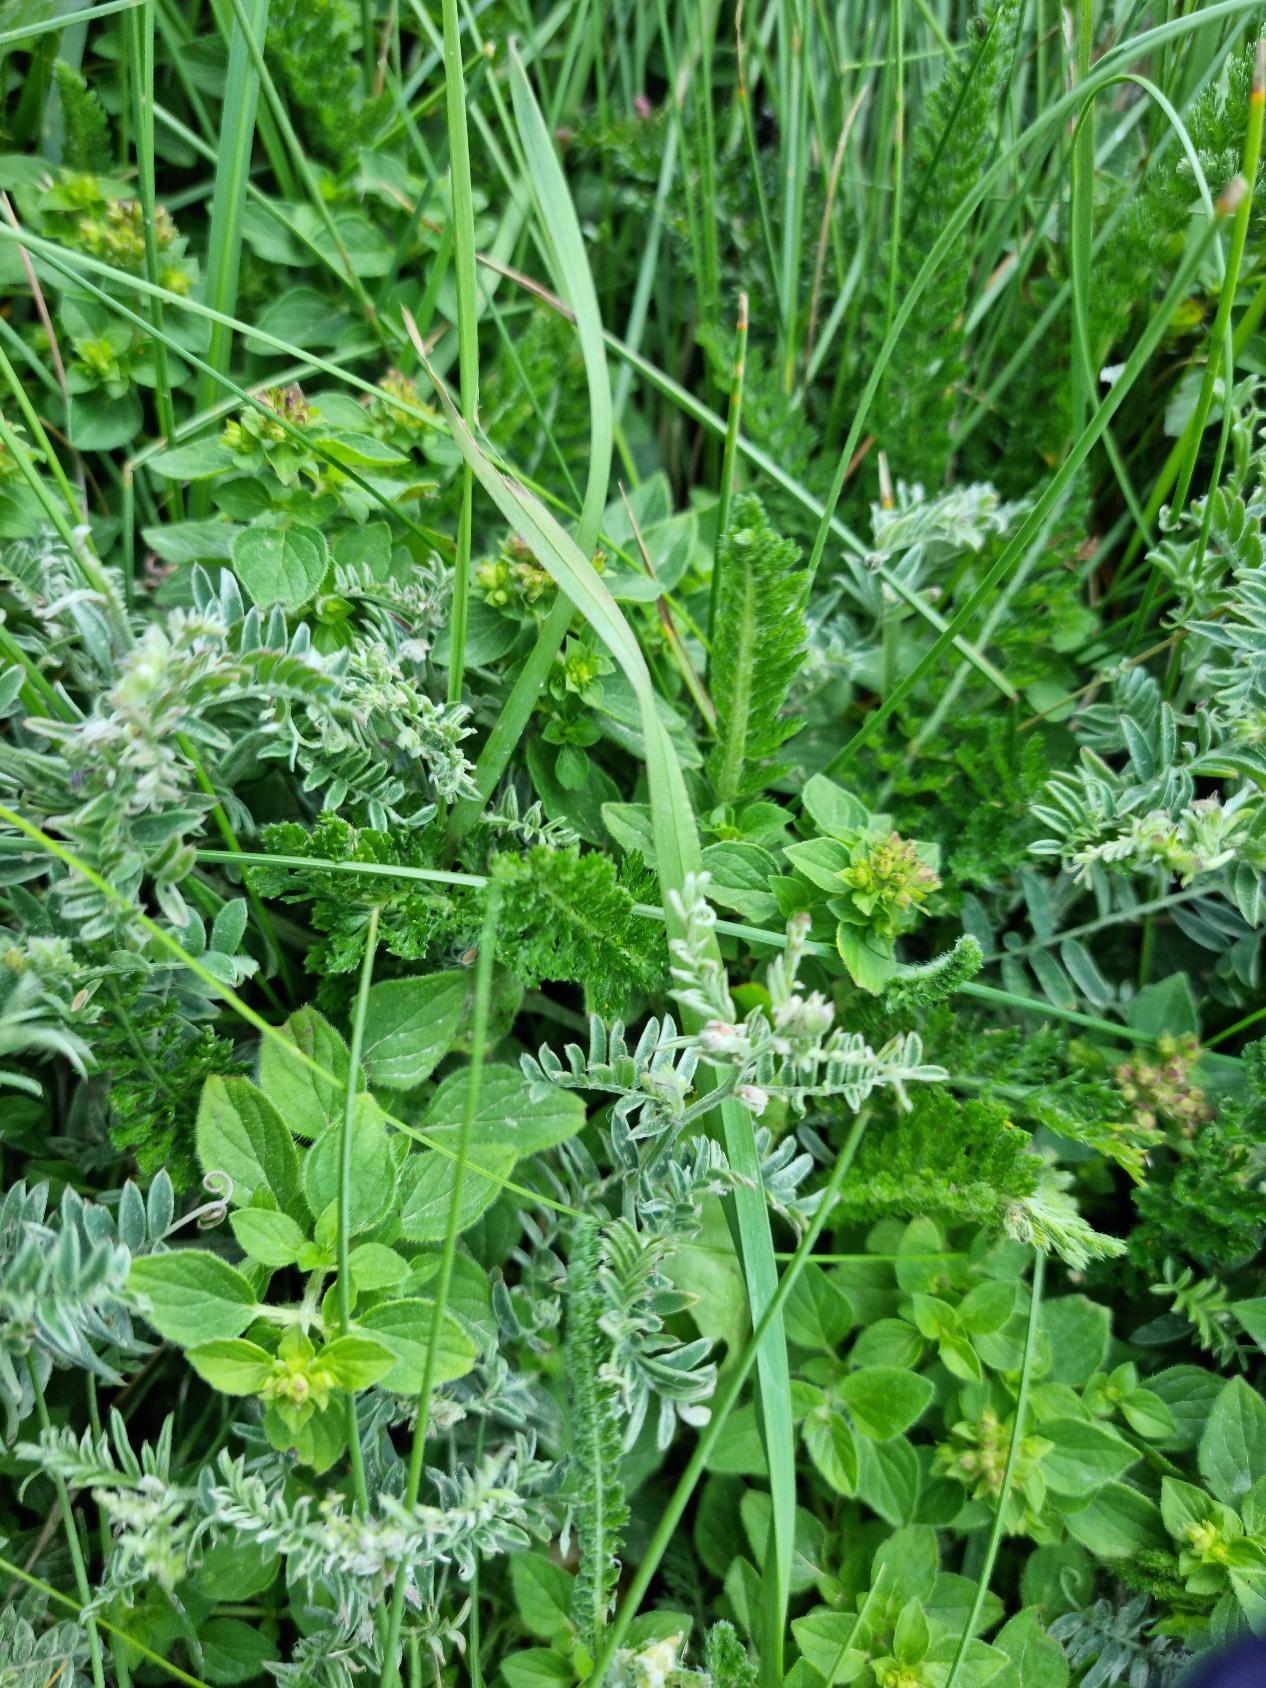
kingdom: Plantae
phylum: Tracheophyta
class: Magnoliopsida
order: Lamiales
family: Lamiaceae
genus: Origanum
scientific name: Origanum vulgare
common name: Merian
